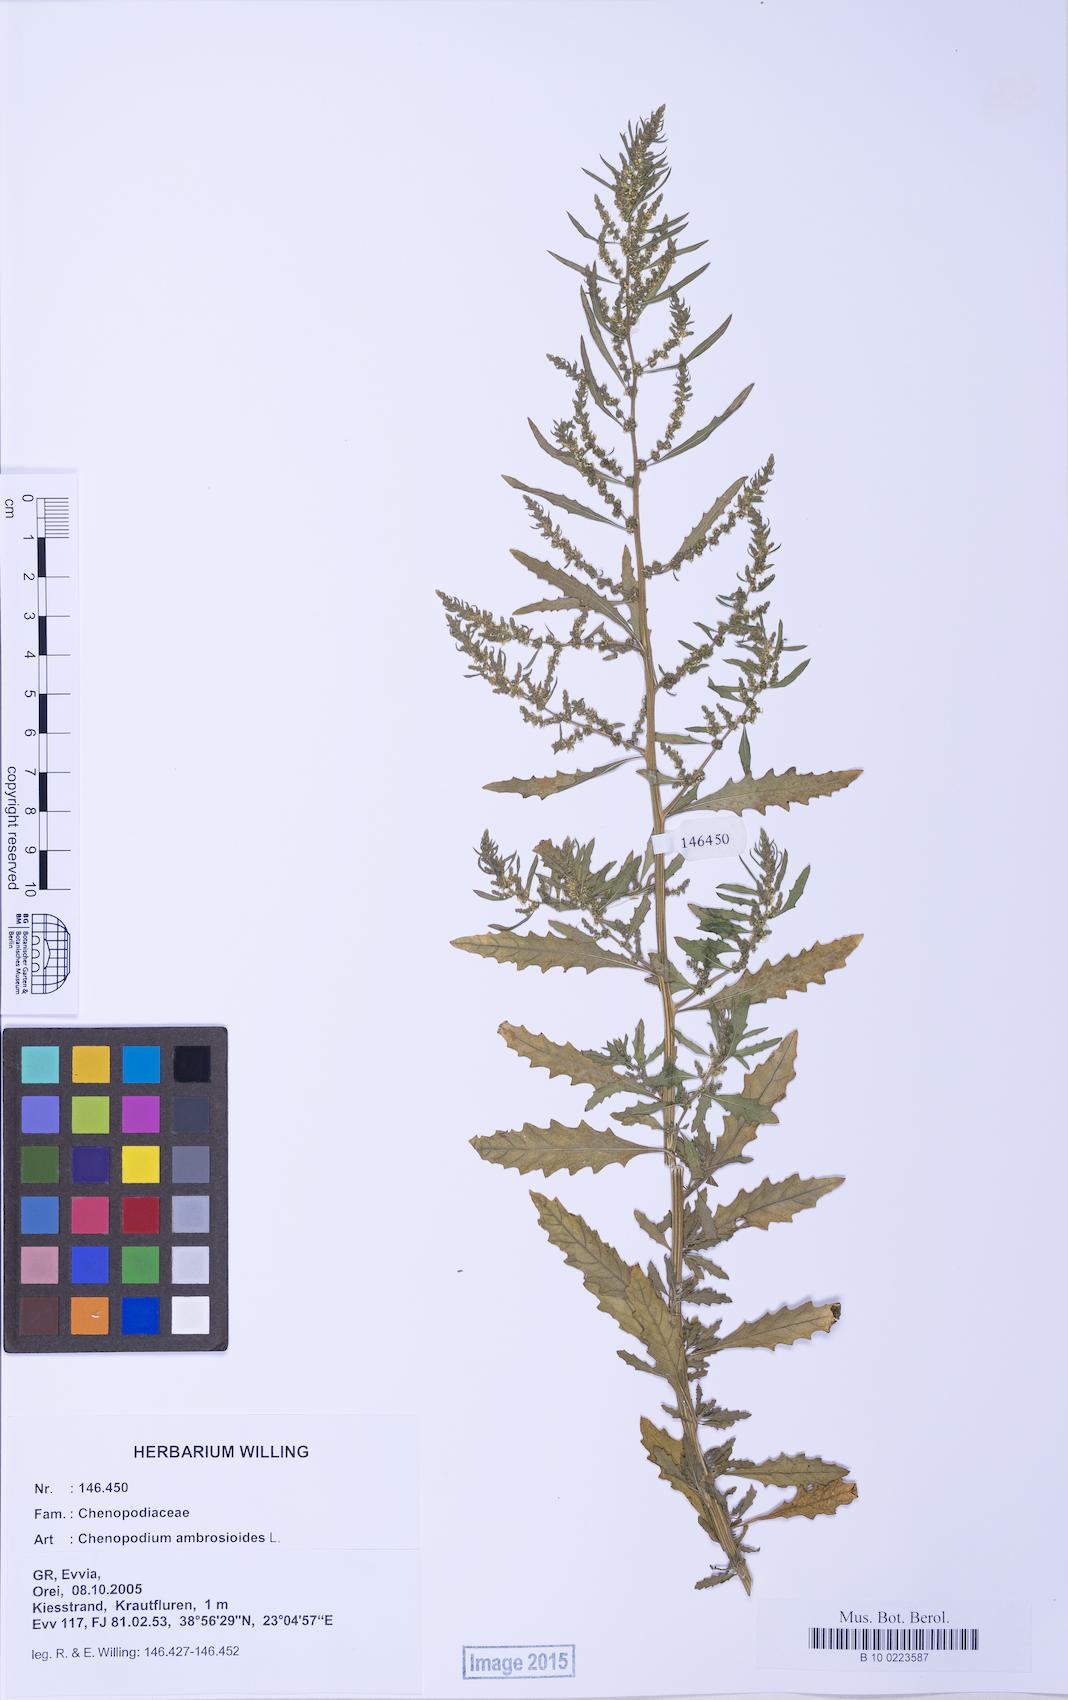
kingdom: Plantae
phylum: Tracheophyta
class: Magnoliopsida
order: Caryophyllales
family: Amaranthaceae
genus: Dysphania
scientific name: Dysphania ambrosioides
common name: Wormseed
